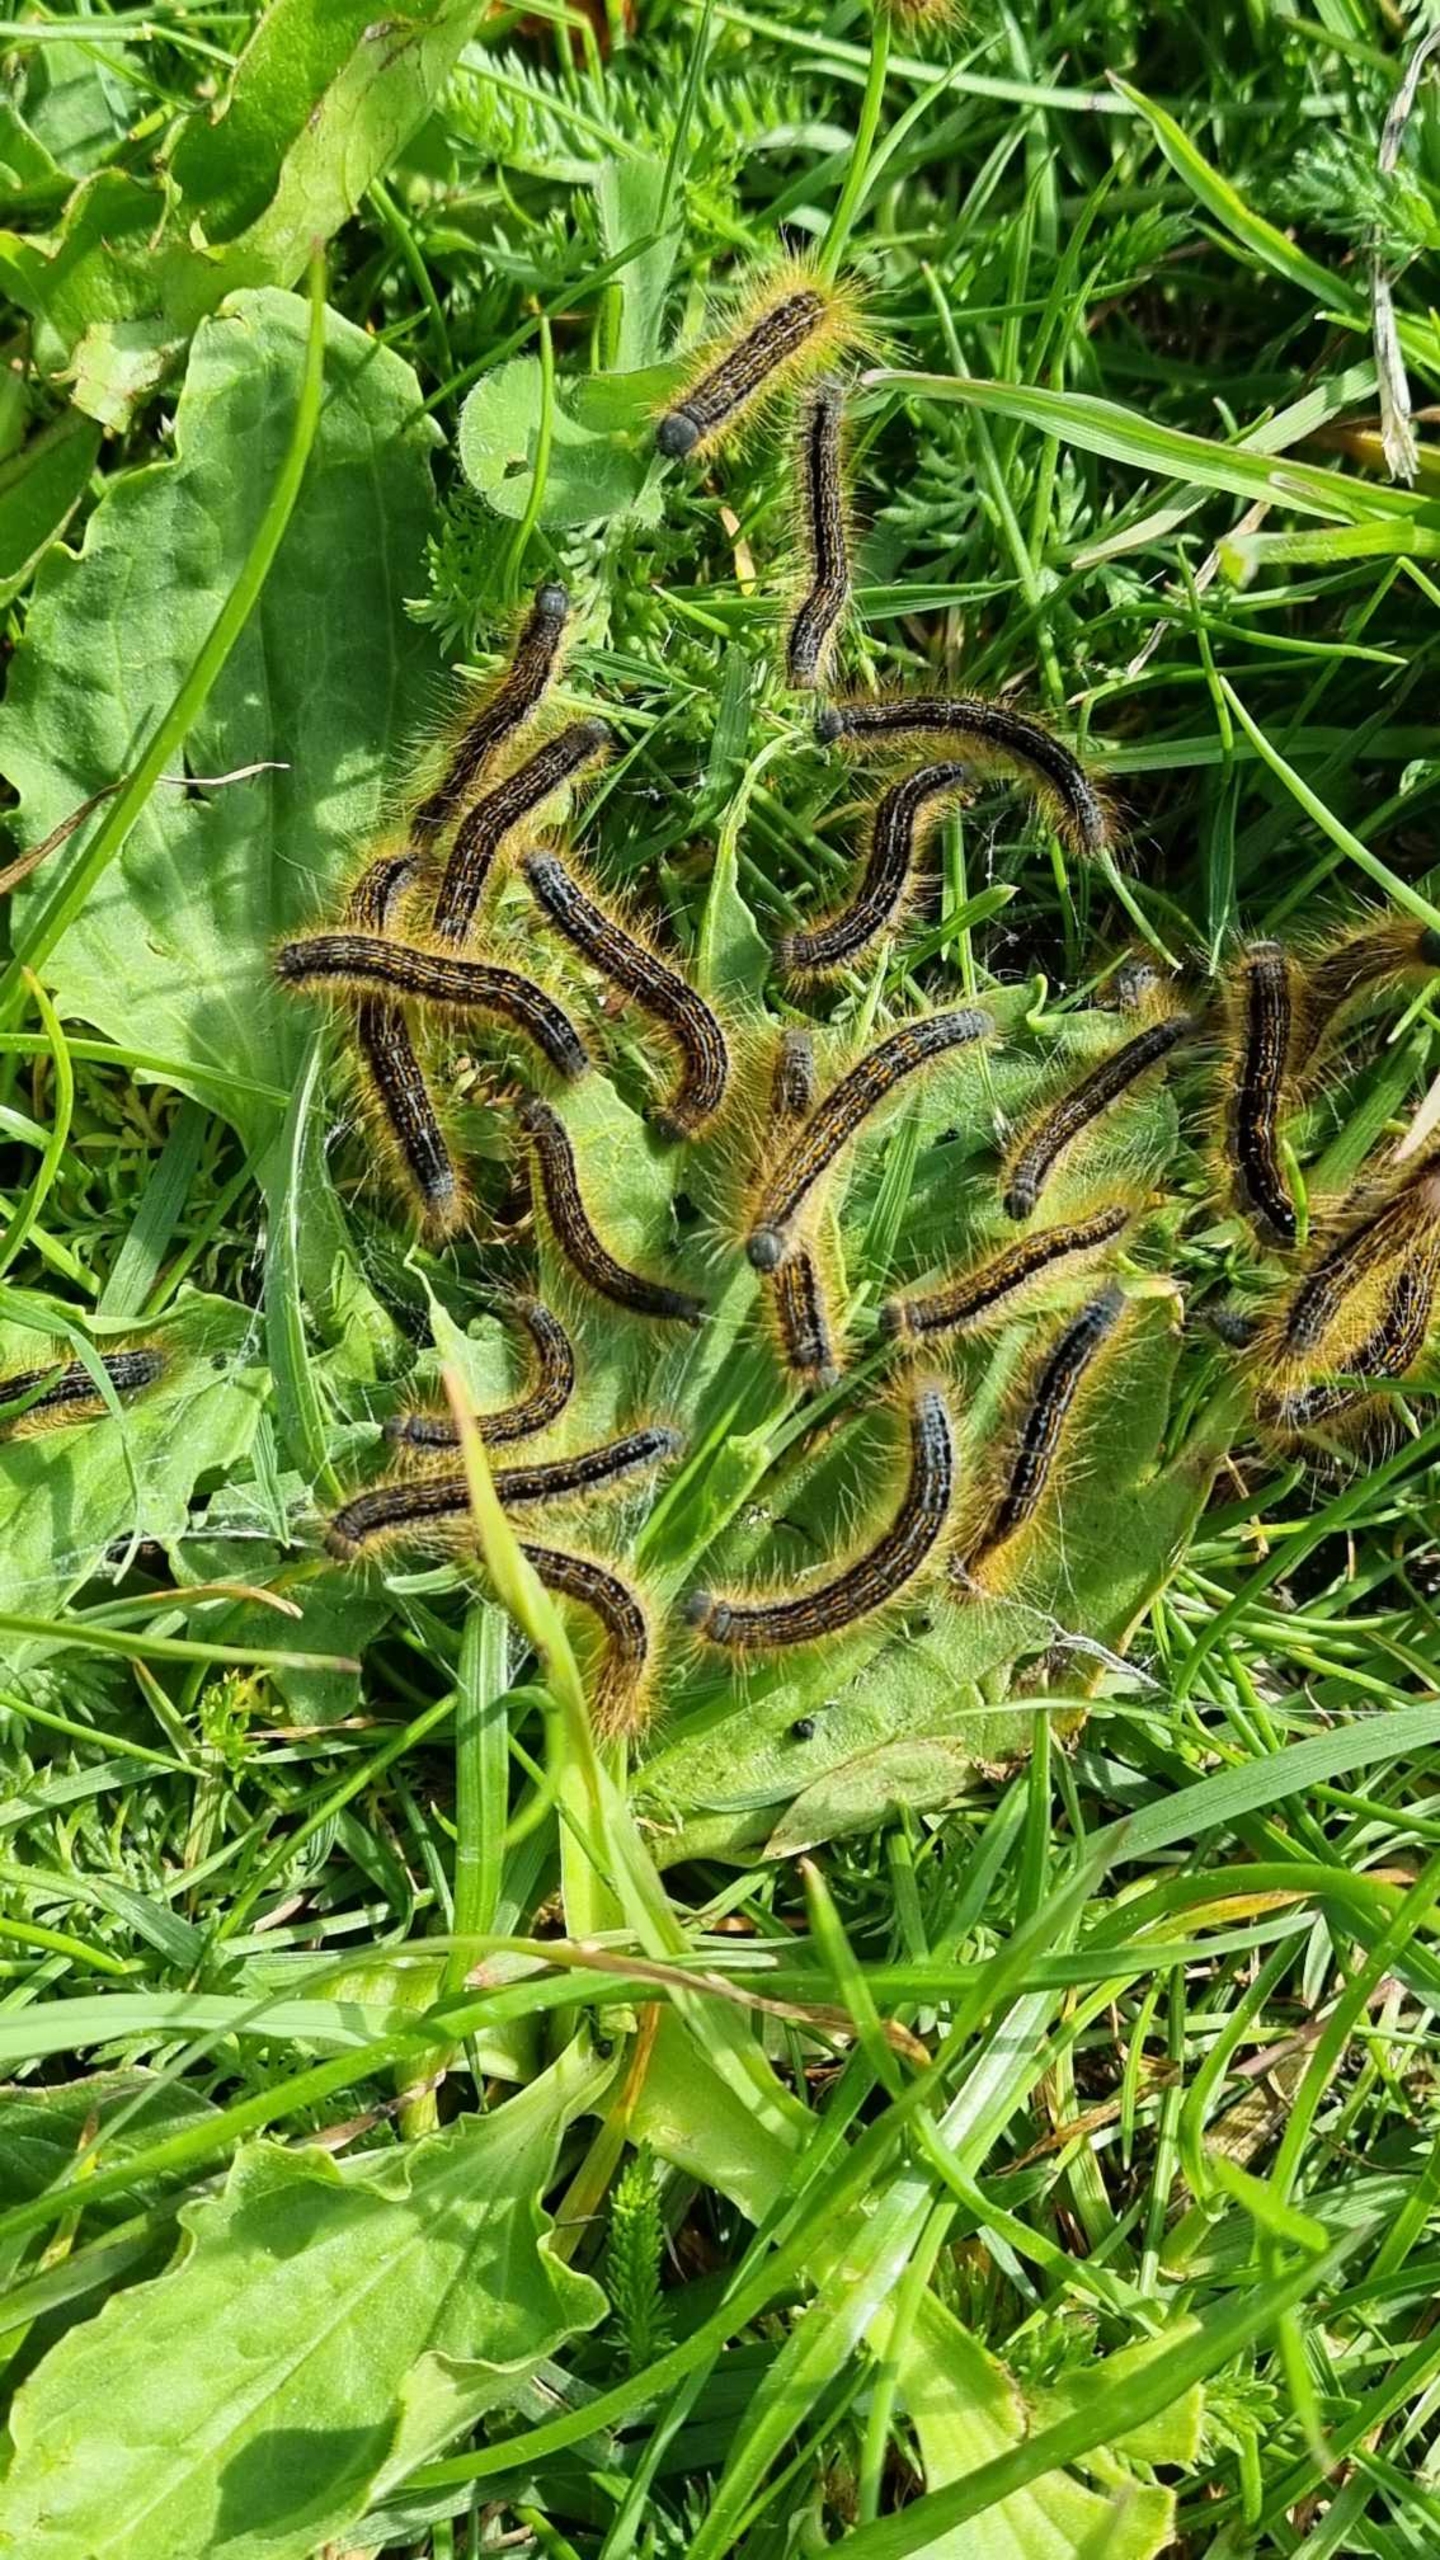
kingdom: Animalia
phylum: Arthropoda
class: Insecta
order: Lepidoptera
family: Lasiocampidae
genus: Malacosoma
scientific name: Malacosoma castrensis
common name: Redespinder
